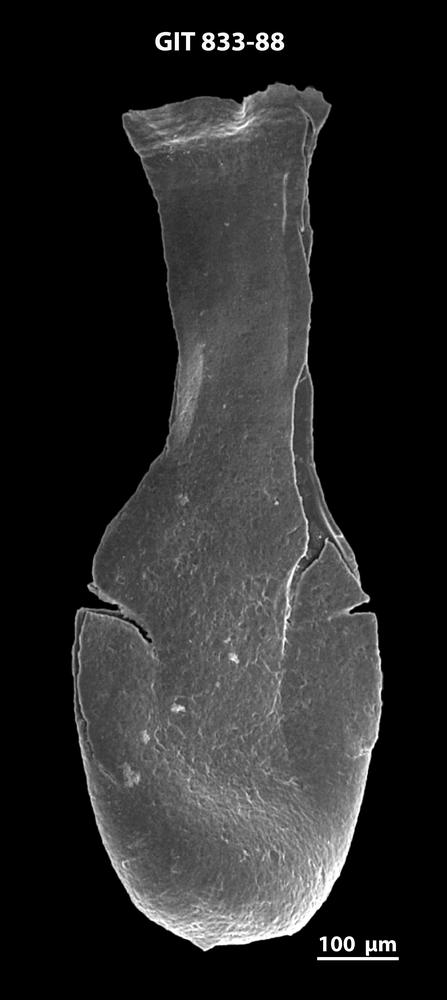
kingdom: Animalia
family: Lagenochitinidae
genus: Lagenochitina
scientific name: Lagenochitina megaesthonica
